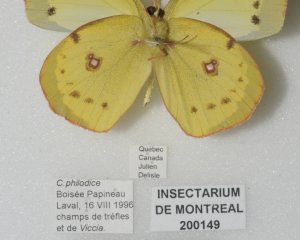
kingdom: Animalia
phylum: Arthropoda
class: Insecta
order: Lepidoptera
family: Pieridae
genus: Colias
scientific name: Colias philodice
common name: Clouded Sulphur
